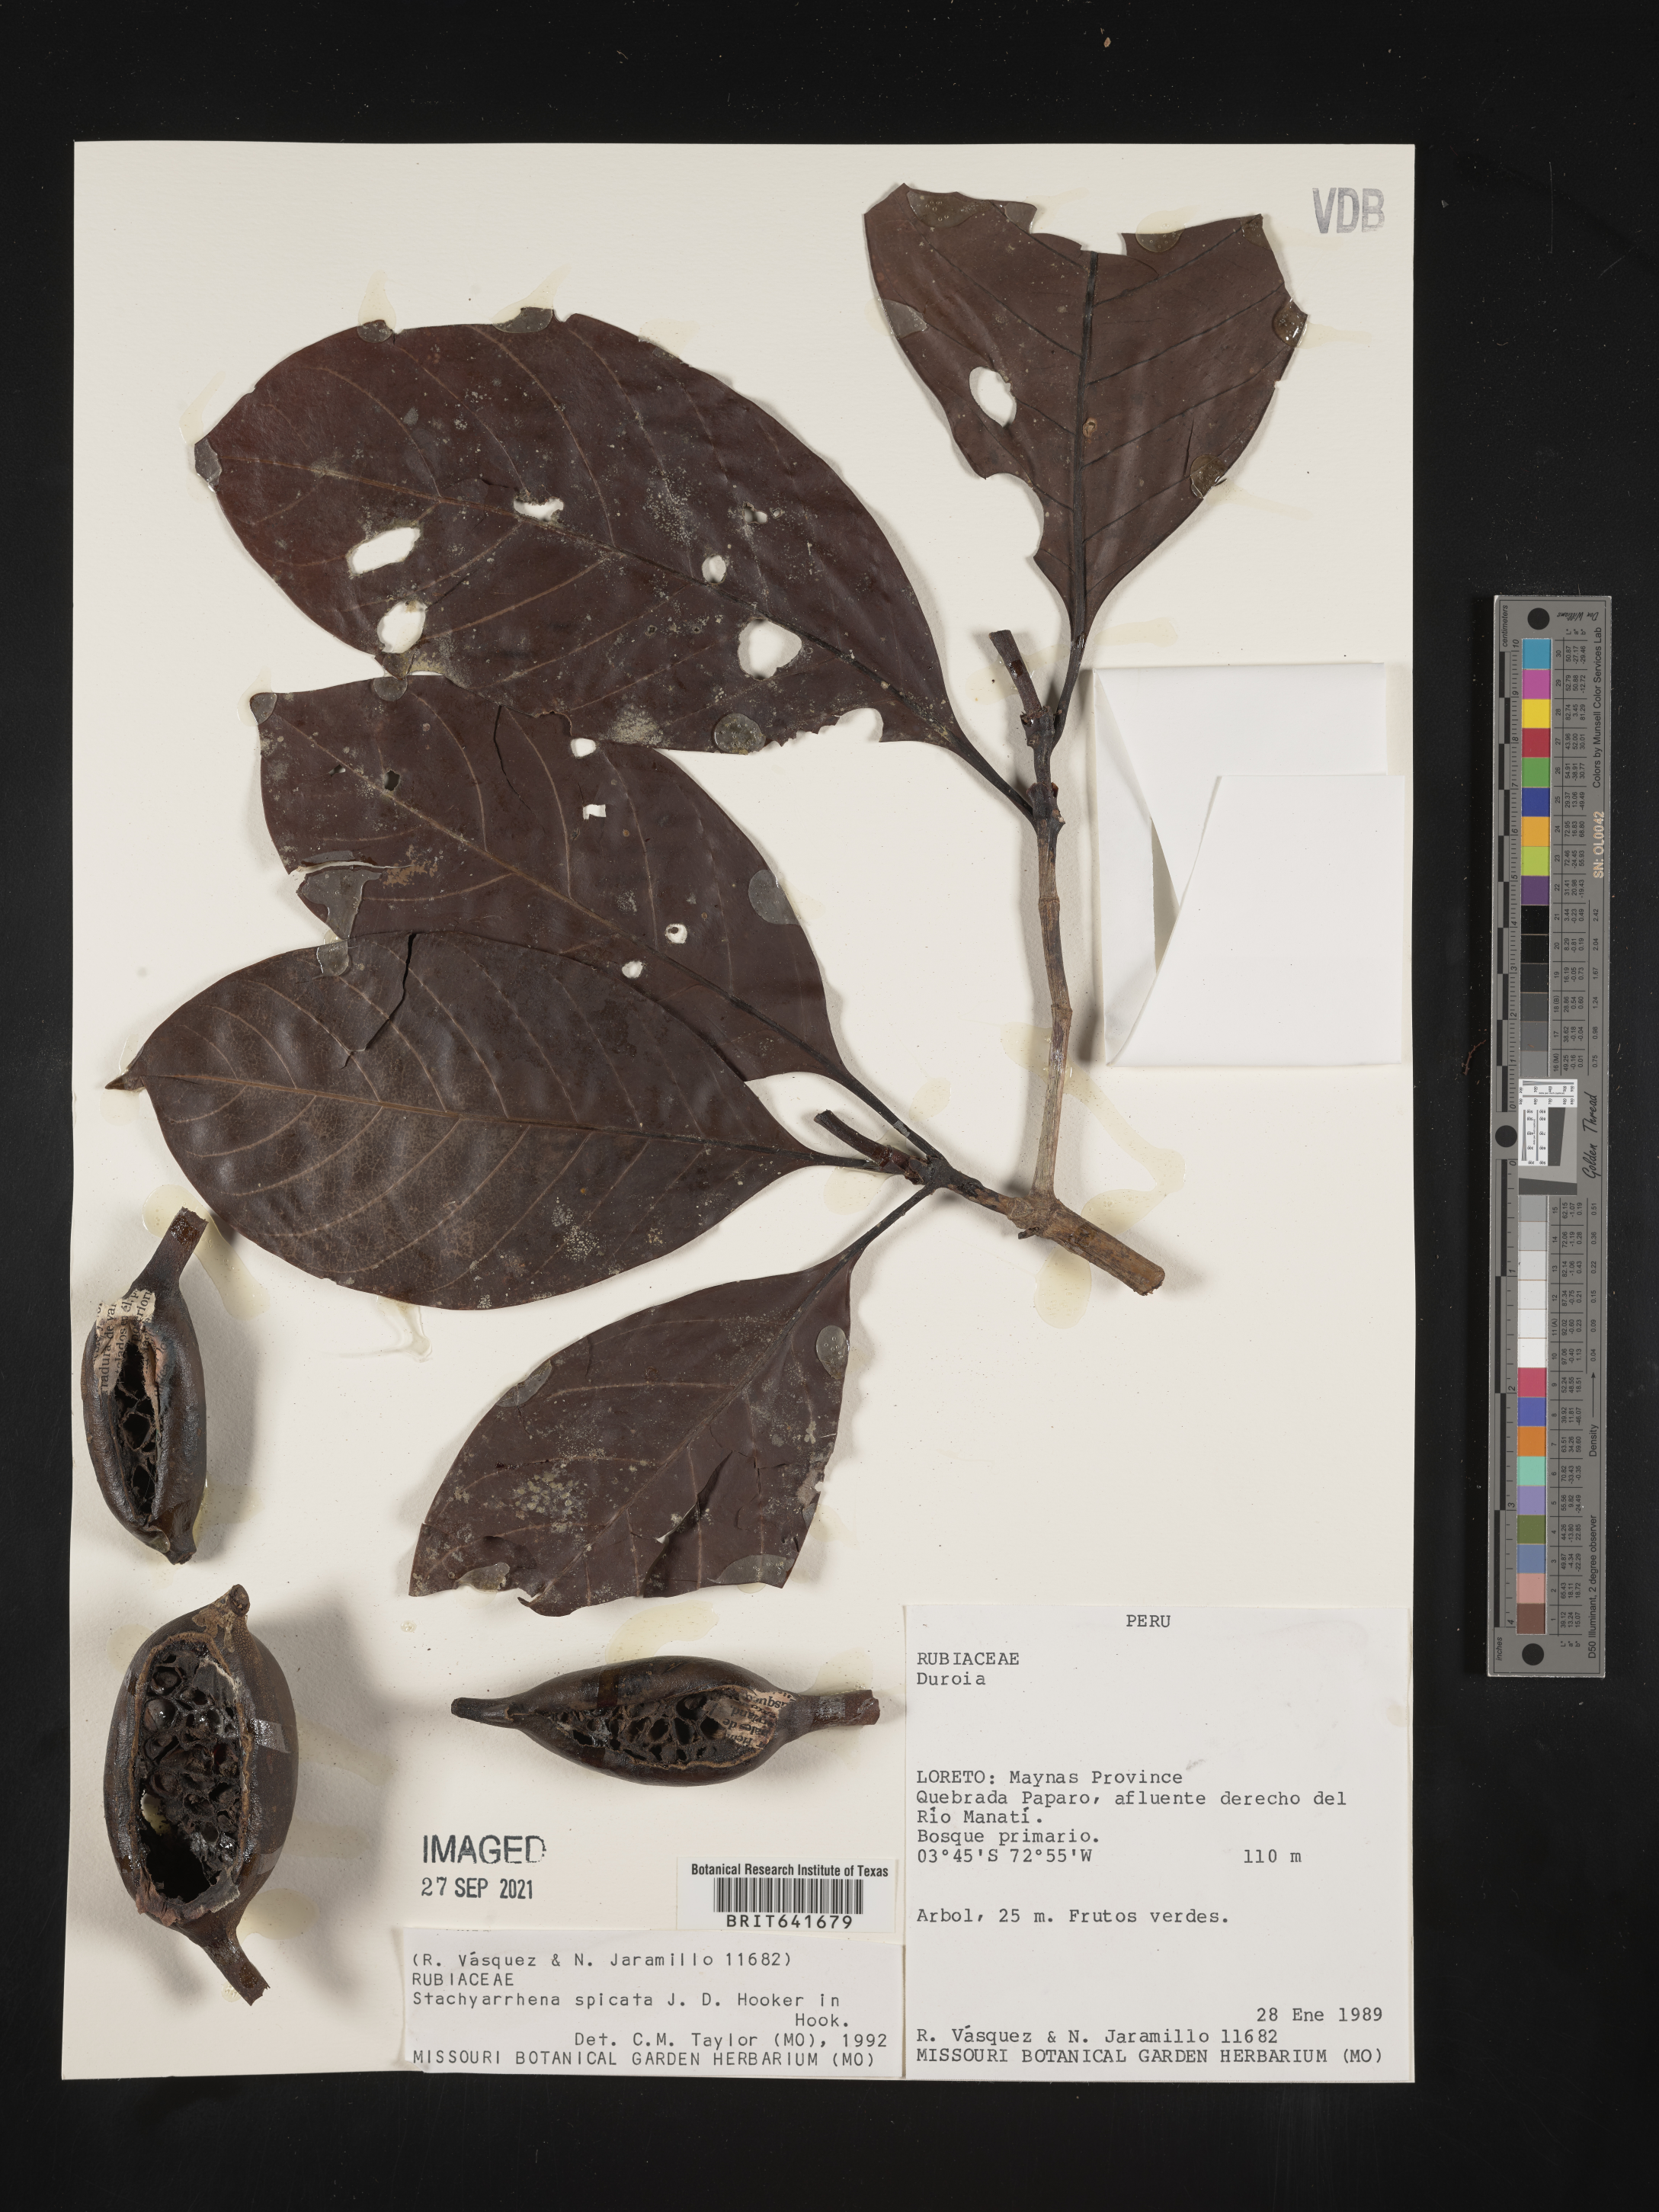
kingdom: Plantae
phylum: Tracheophyta
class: Magnoliopsida
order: Gentianales
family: Rubiaceae
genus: Stachyarrhena
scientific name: Stachyarrhena
